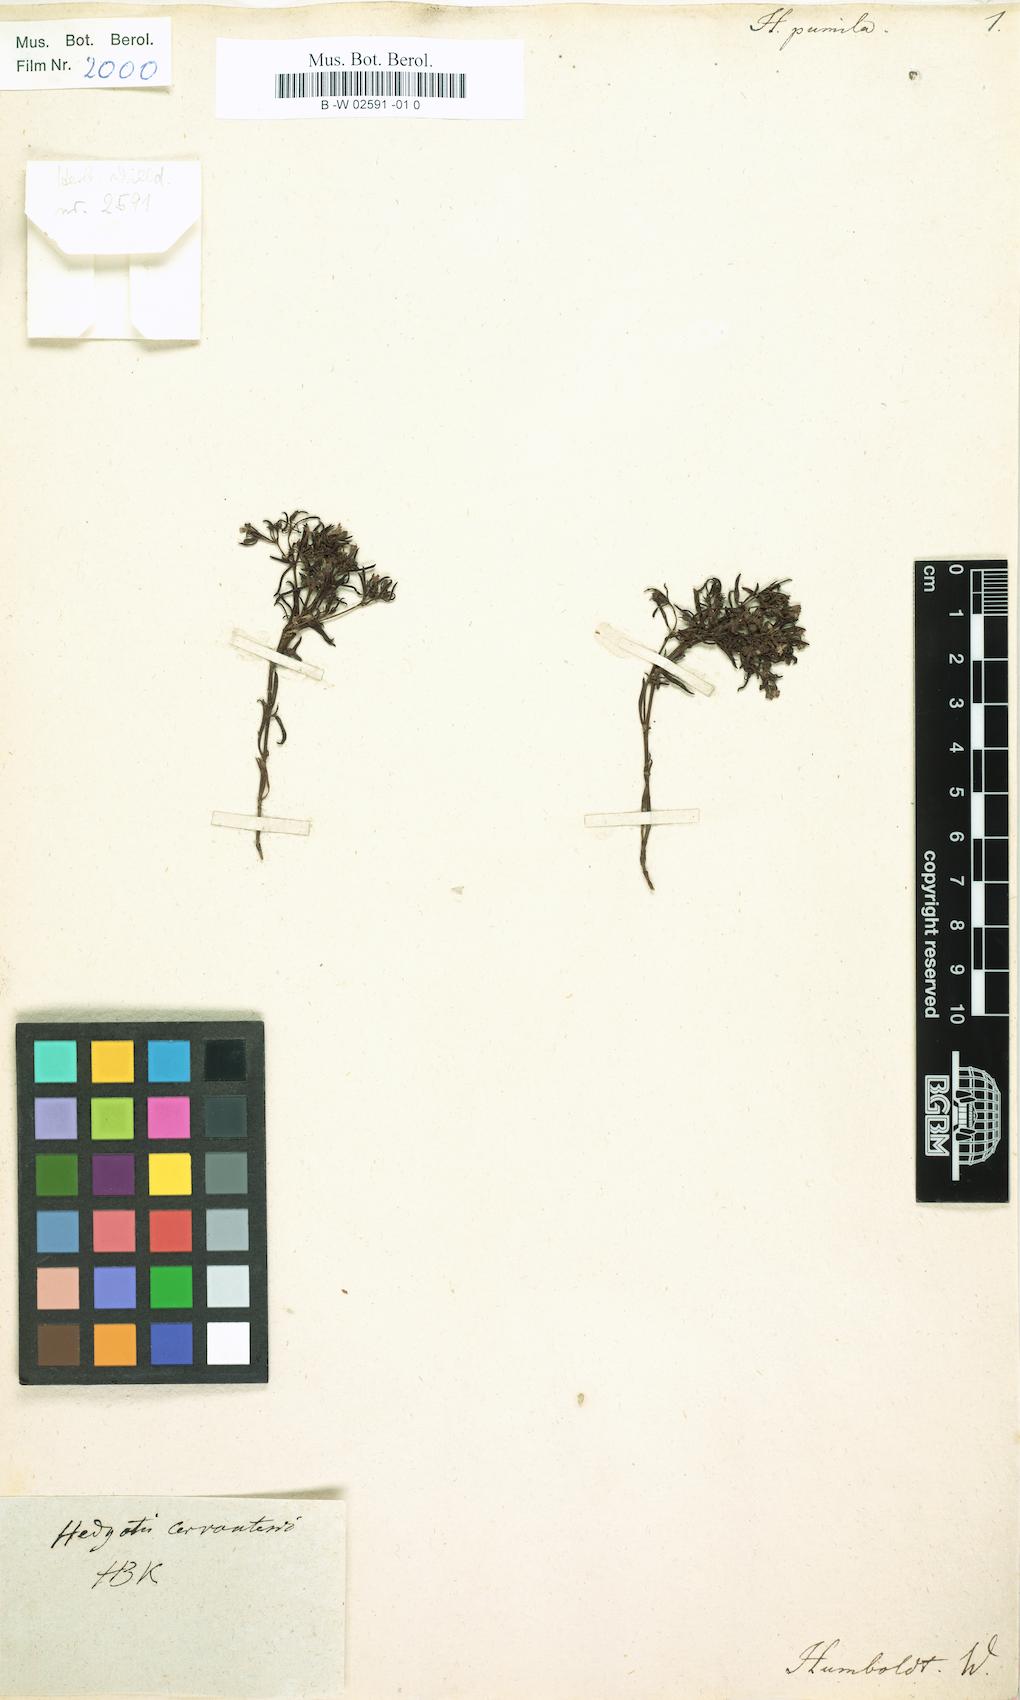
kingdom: Plantae
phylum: Tracheophyta
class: Magnoliopsida
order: Gentianales
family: Rubiaceae
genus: Oldenlandia
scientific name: Oldenlandia pumila
